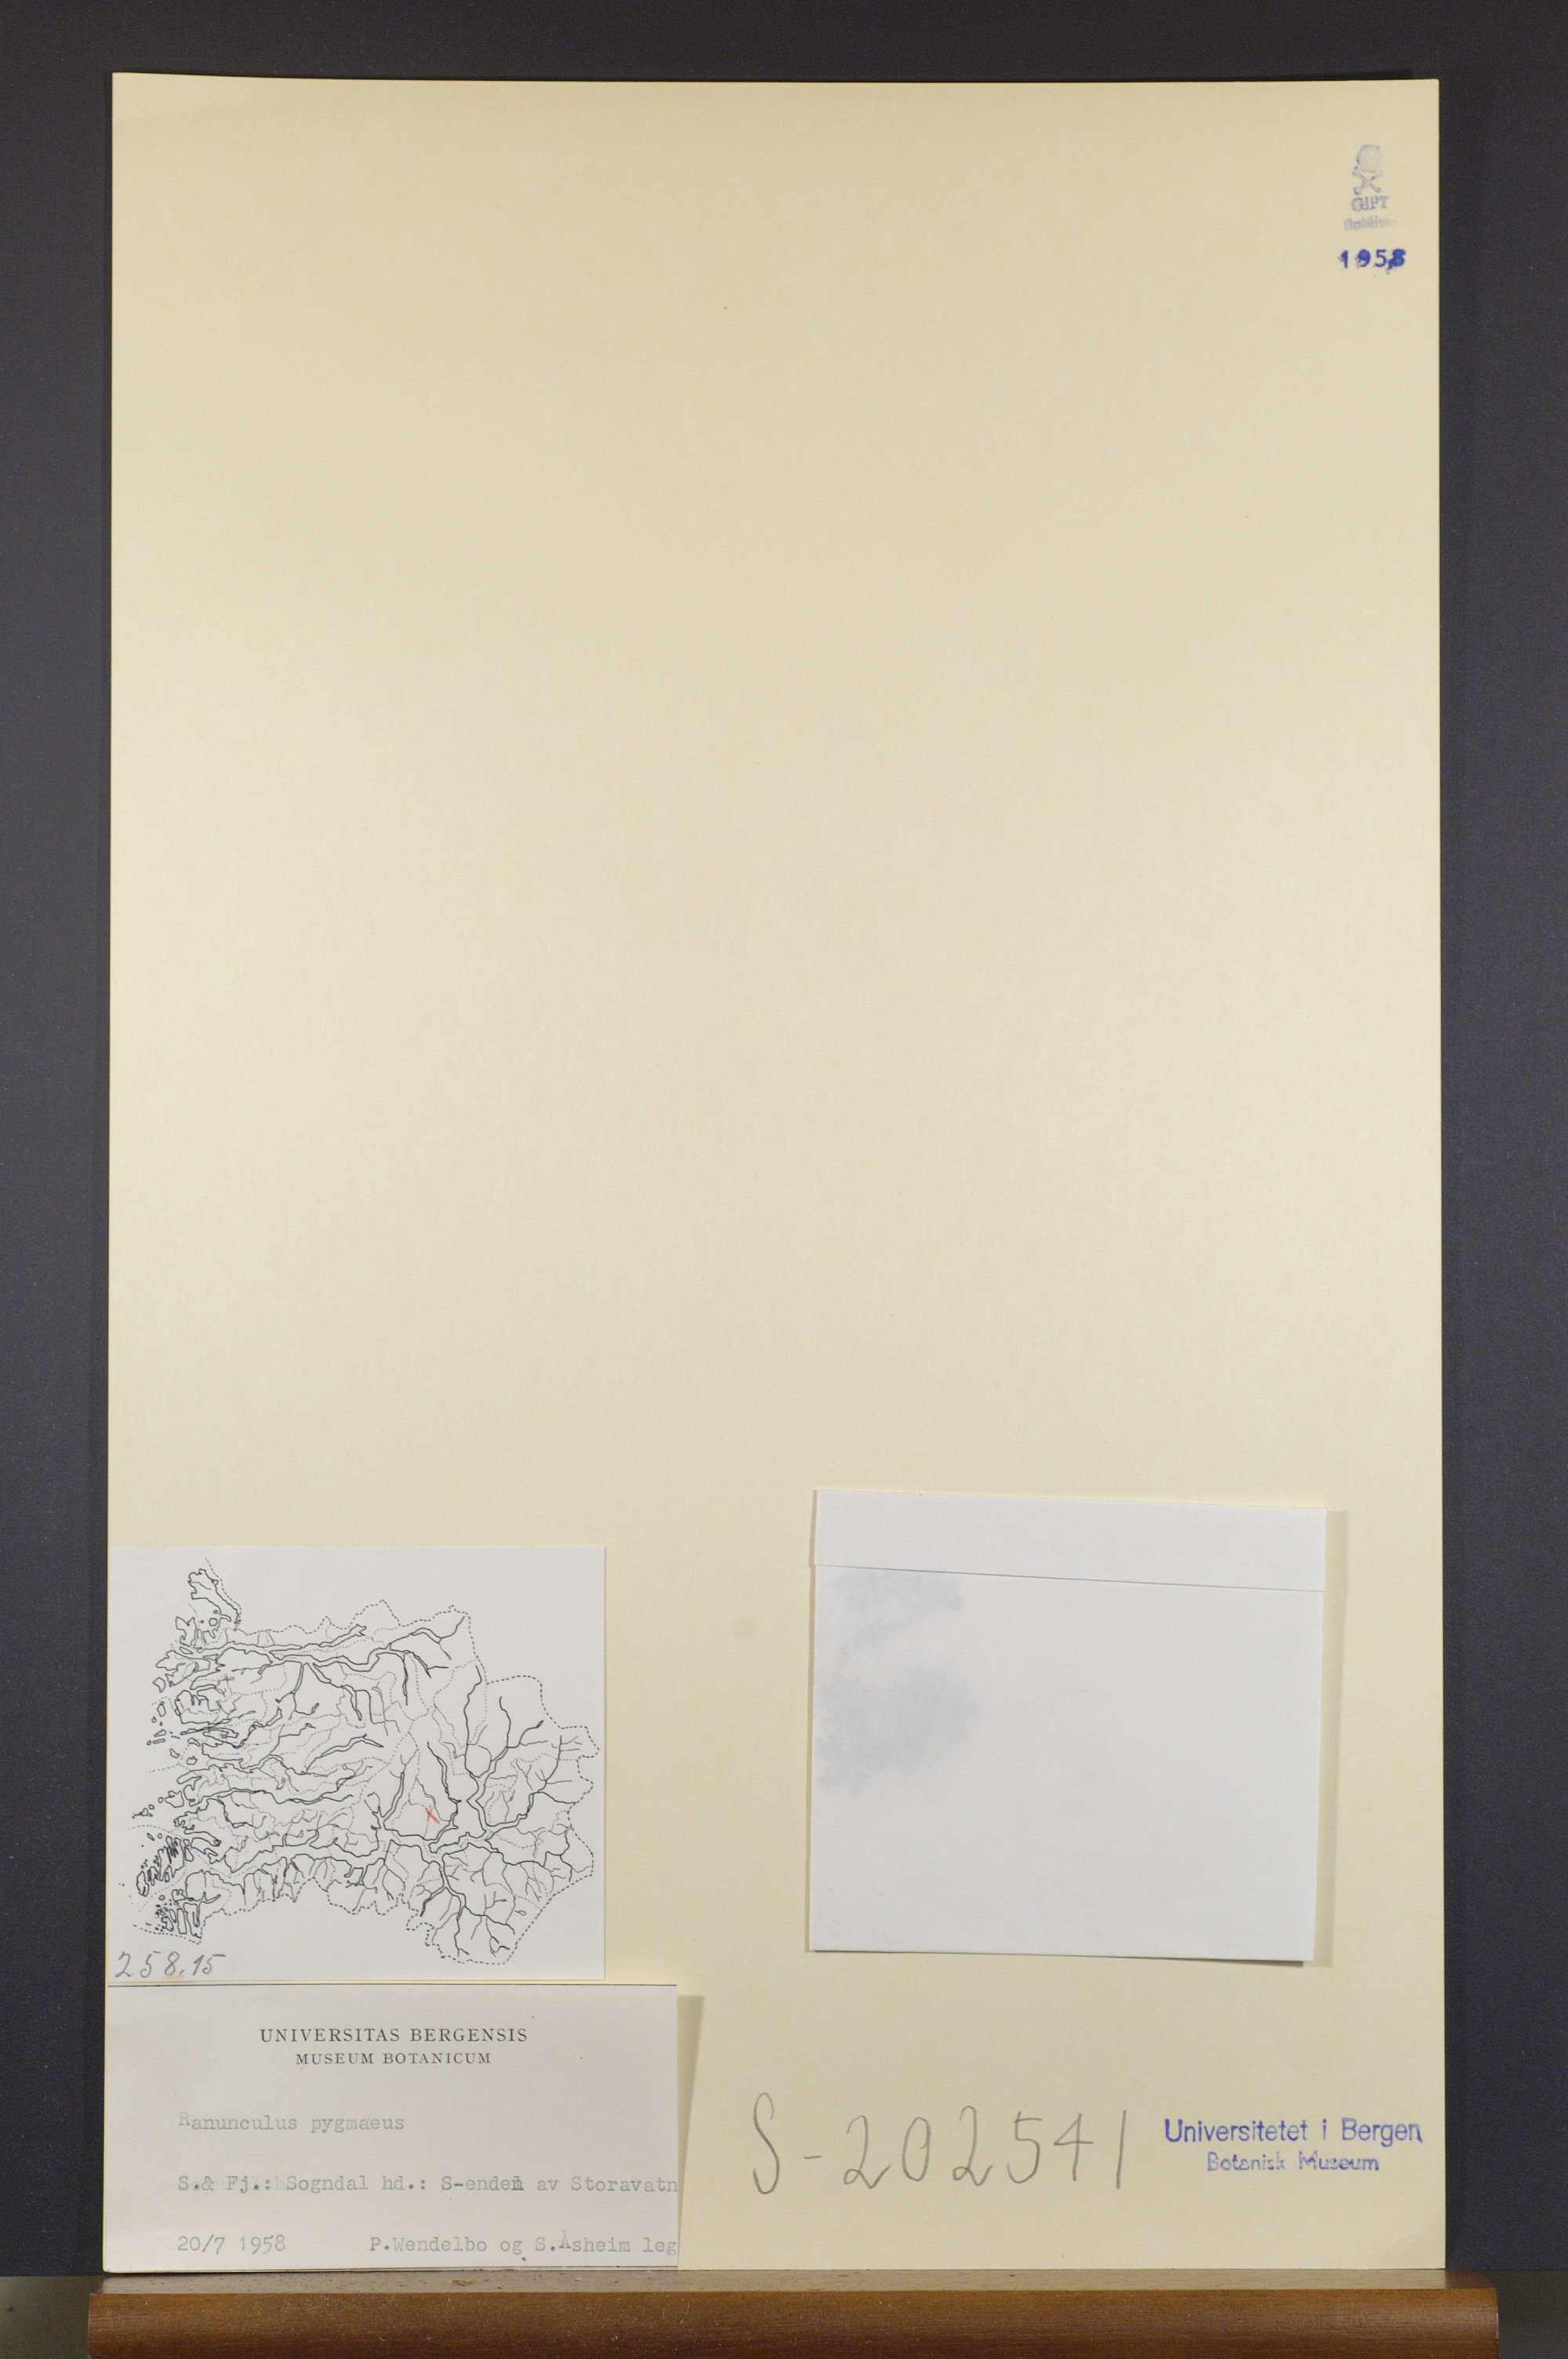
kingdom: Plantae
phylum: Tracheophyta
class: Magnoliopsida
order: Ranunculales
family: Ranunculaceae
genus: Ranunculus
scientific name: Ranunculus pygmaeus
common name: Dwarf buttercup
